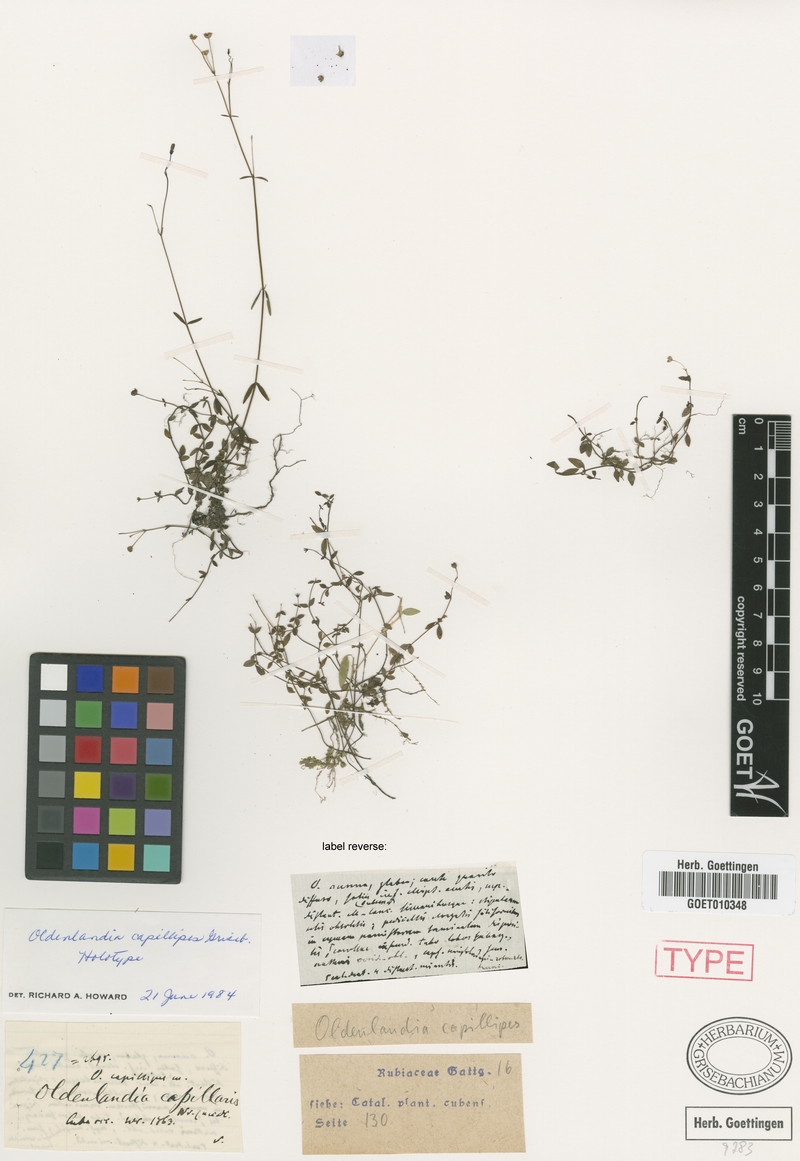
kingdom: Plantae
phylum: Tracheophyta
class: Magnoliopsida
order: Gentianales
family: Rubiaceae
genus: Oldenlandia
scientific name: Oldenlandia capillipes
